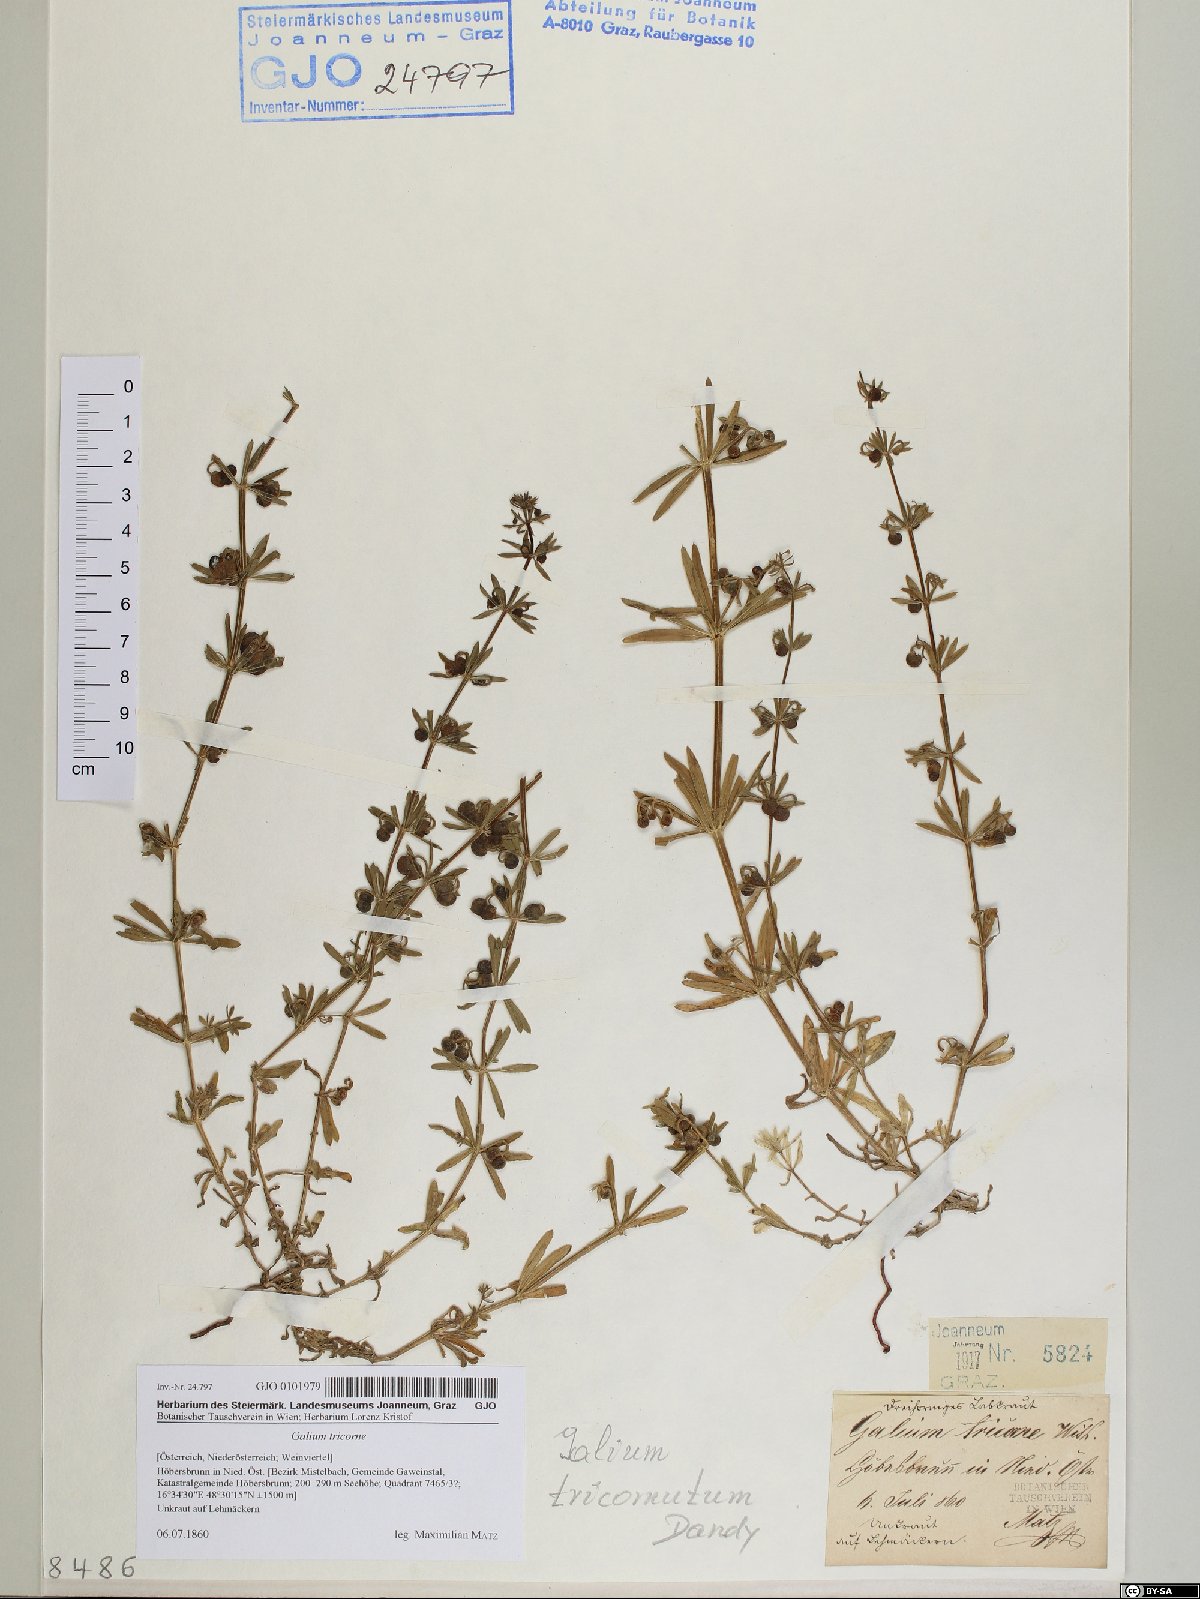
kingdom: Plantae
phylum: Tracheophyta
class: Magnoliopsida
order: Gentianales
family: Rubiaceae
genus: Galium
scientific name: Galium verrucosum
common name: Warty bedstraw
